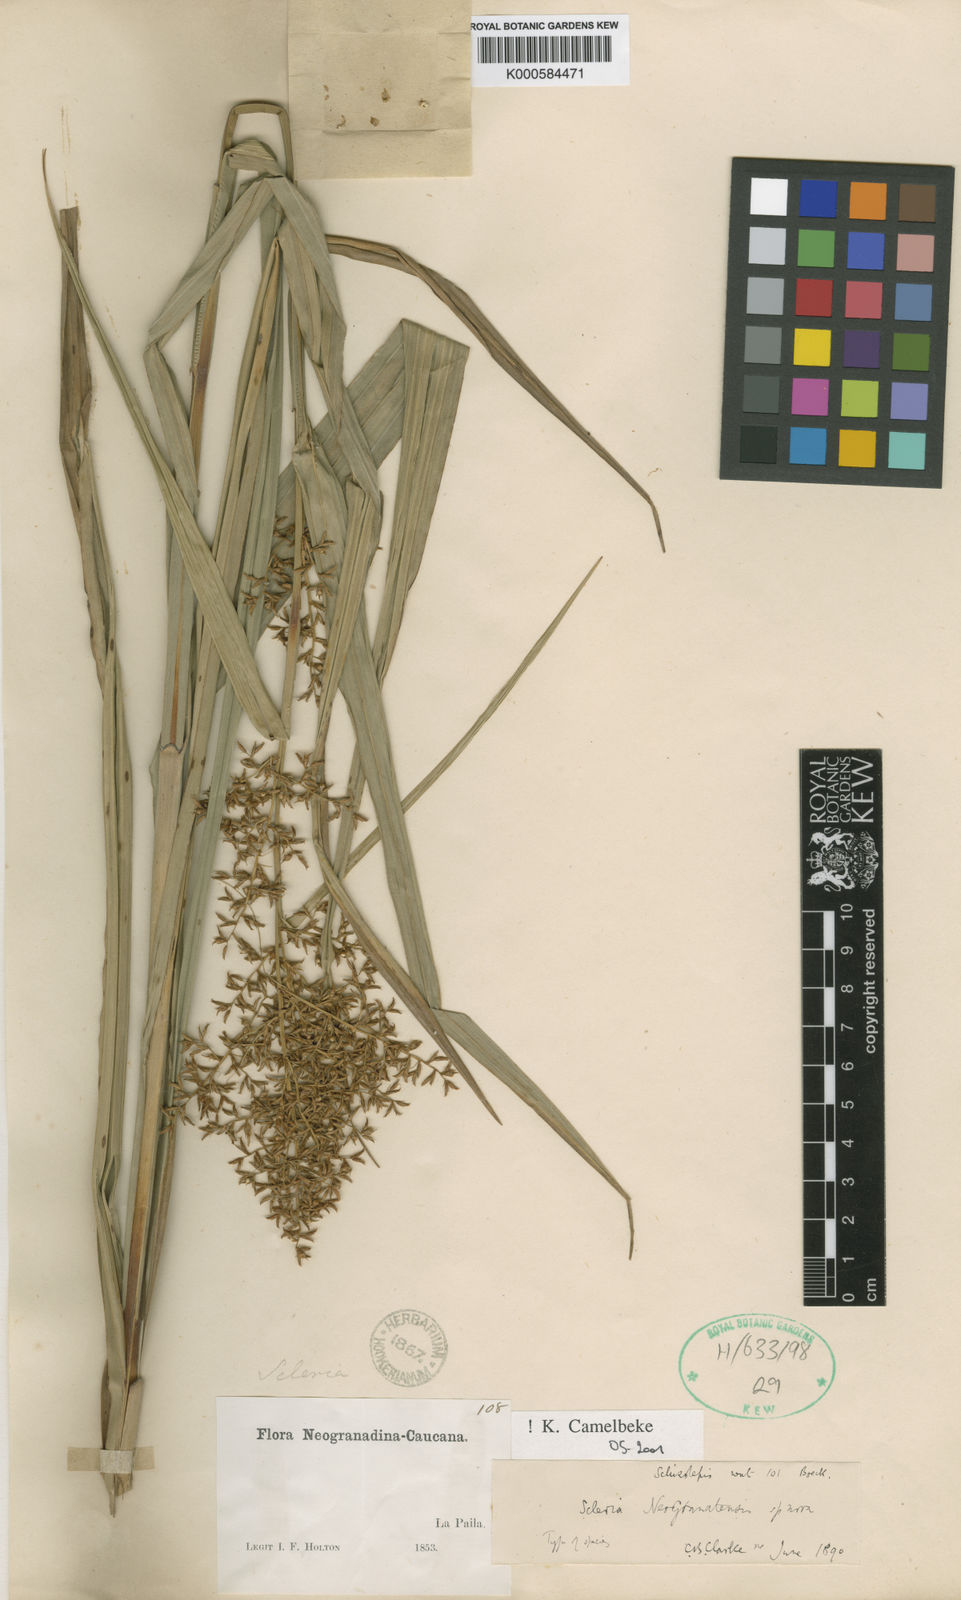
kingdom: Plantae
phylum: Tracheophyta
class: Liliopsida
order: Poales
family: Cyperaceae
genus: Scleria
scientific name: Scleria neogranatensis
